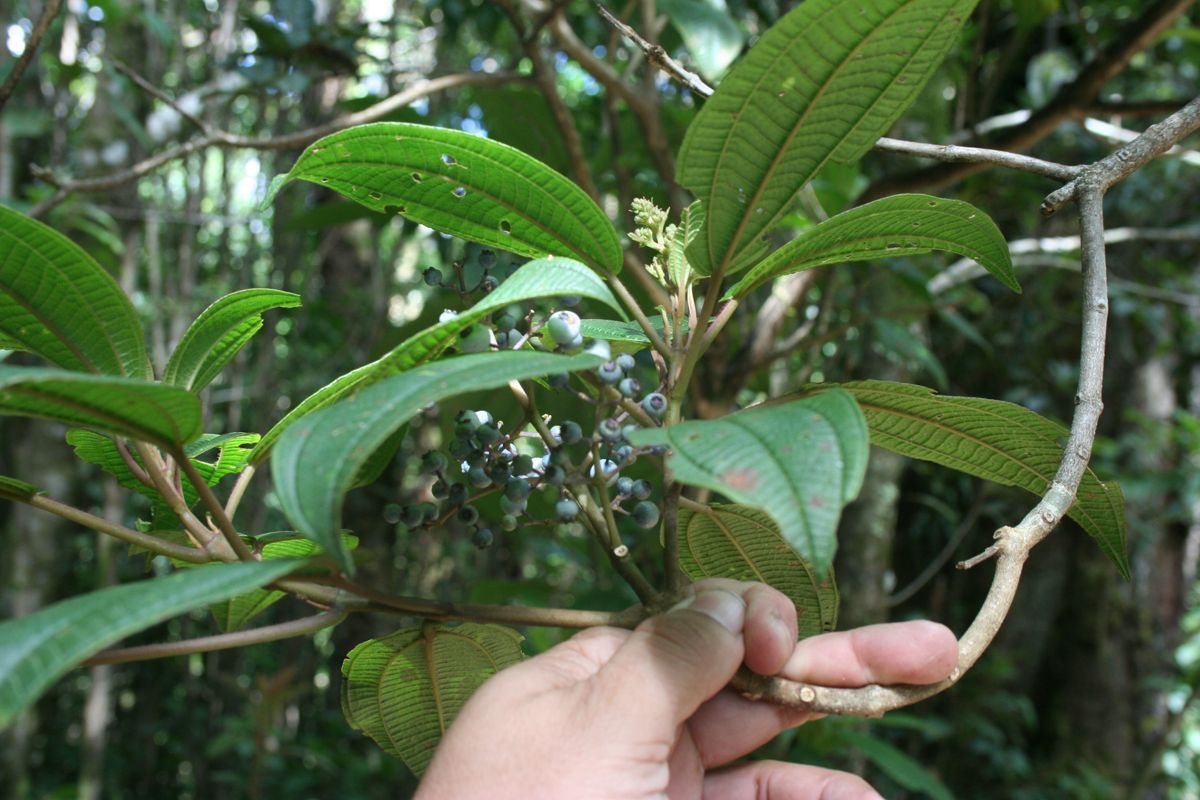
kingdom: Plantae
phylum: Tracheophyta
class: Magnoliopsida
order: Myrtales
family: Melastomataceae
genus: Miconia
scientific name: Miconia
